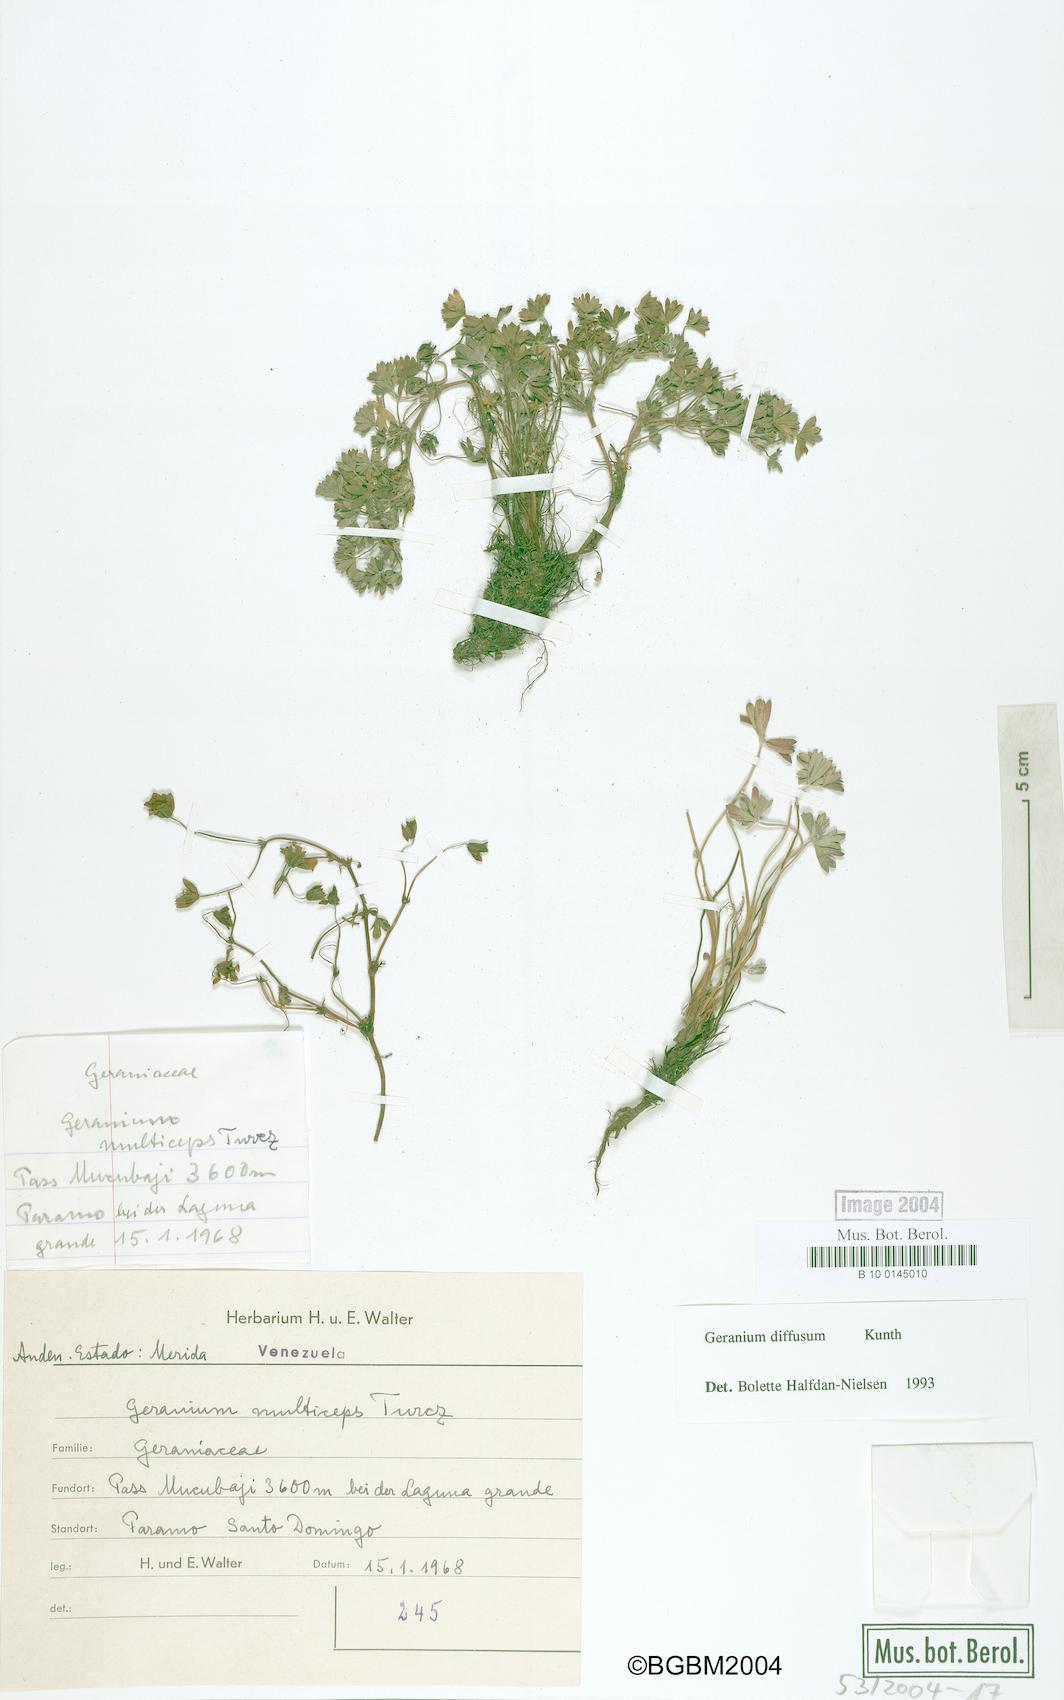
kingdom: Plantae
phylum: Tracheophyta
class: Magnoliopsida
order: Geraniales
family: Geraniaceae
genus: Geranium
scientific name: Geranium multiceps
